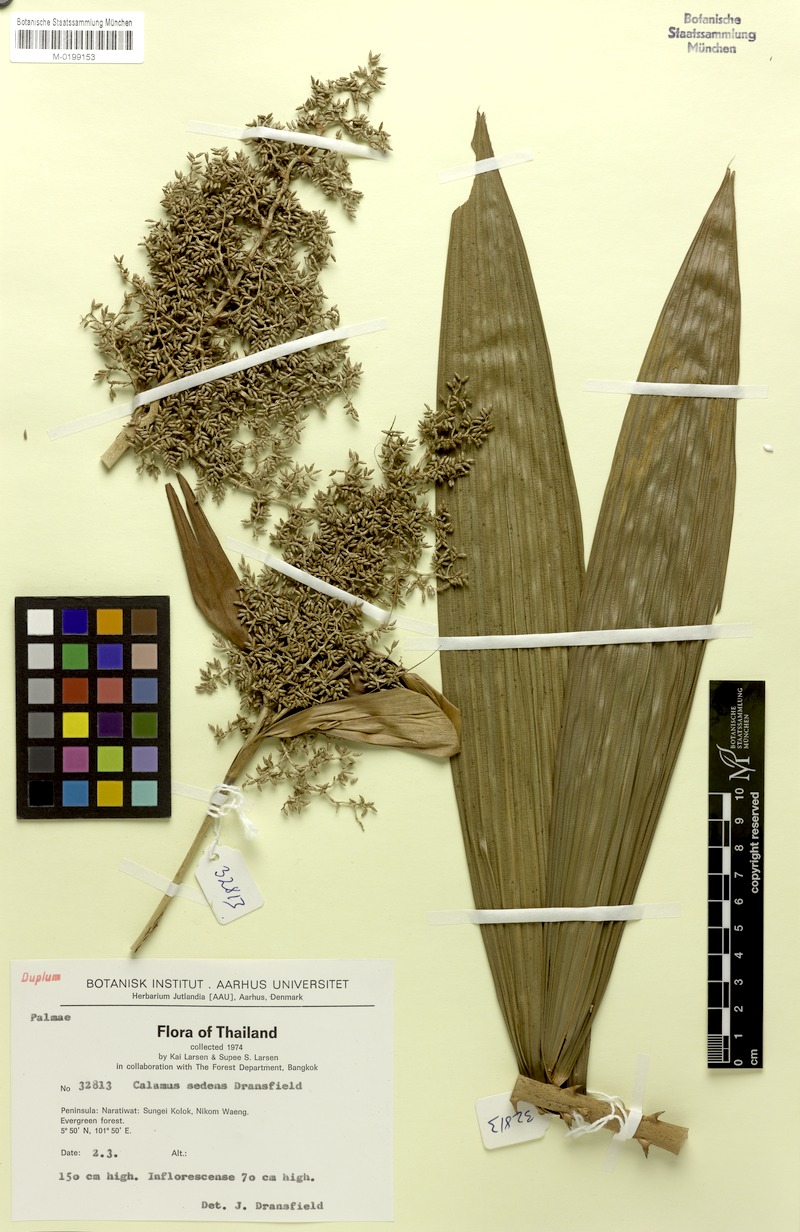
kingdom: Plantae
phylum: Tracheophyta
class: Liliopsida
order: Arecales
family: Arecaceae
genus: Calamus
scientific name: Calamus sedens
